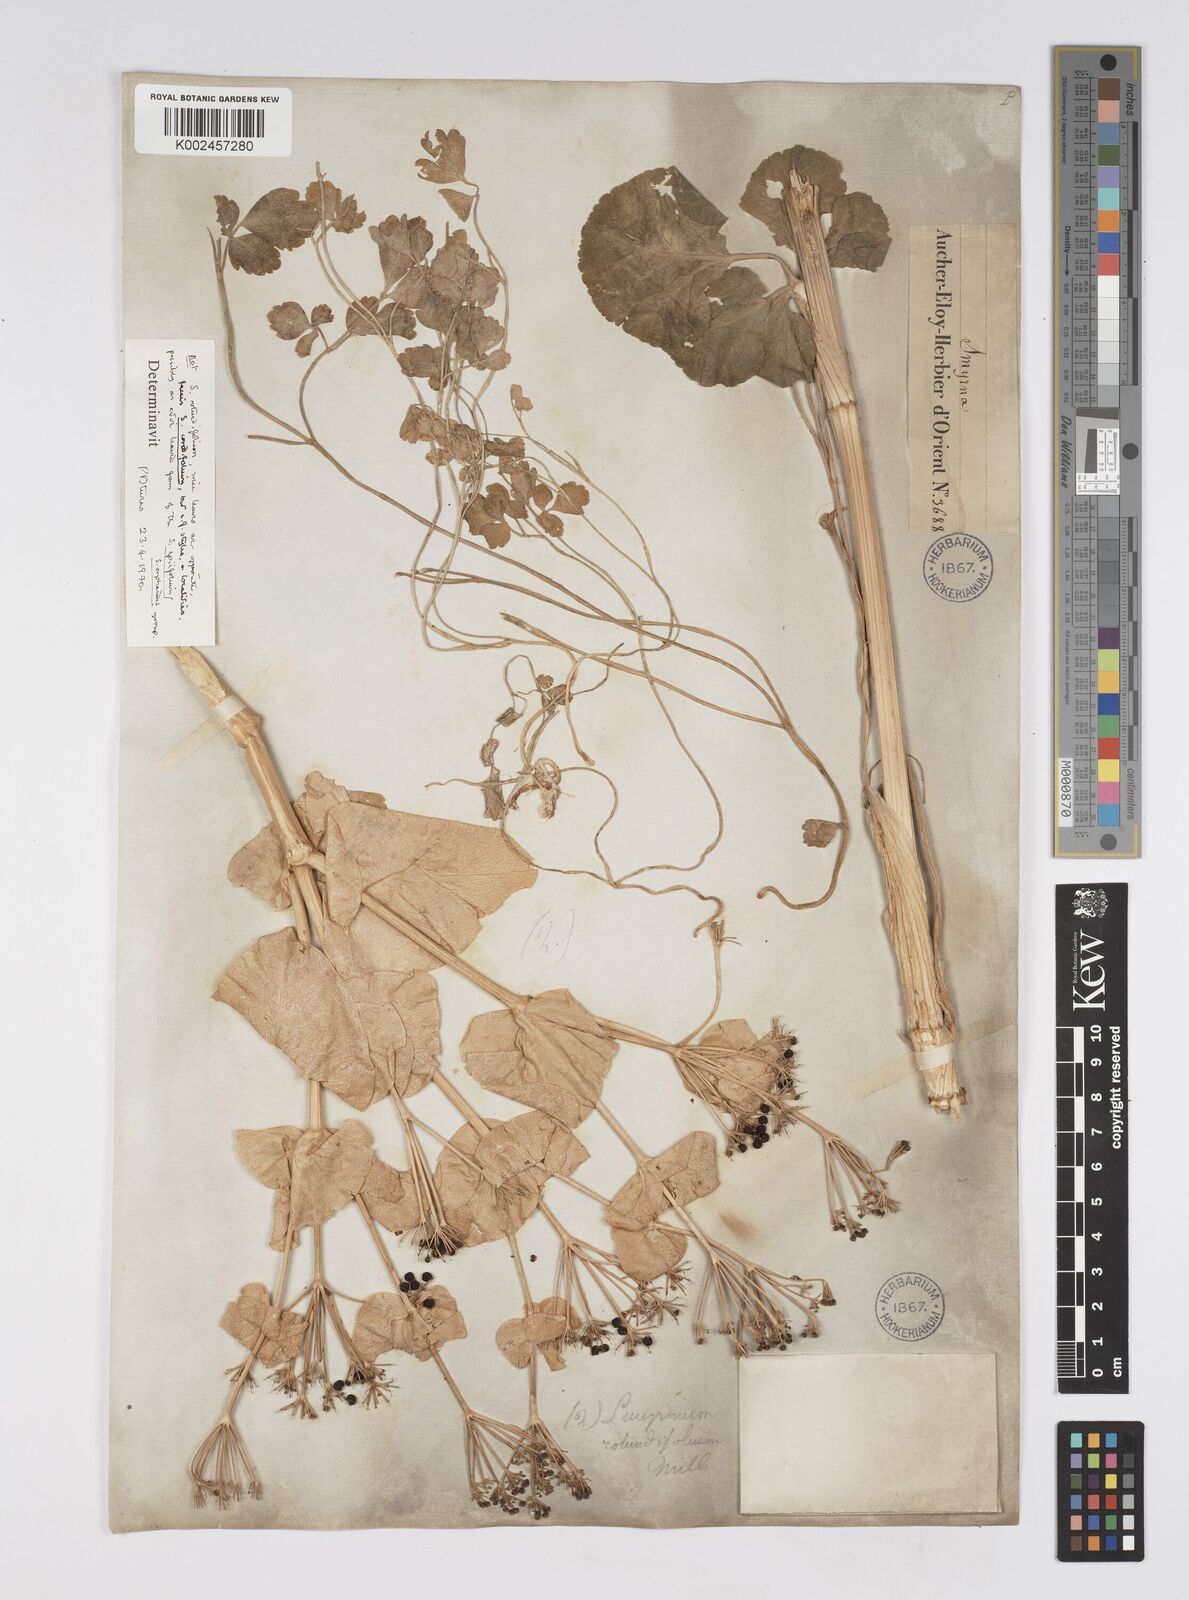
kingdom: Plantae
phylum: Tracheophyta
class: Magnoliopsida
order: Apiales
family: Apiaceae
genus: Smyrnium
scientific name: Smyrnium
